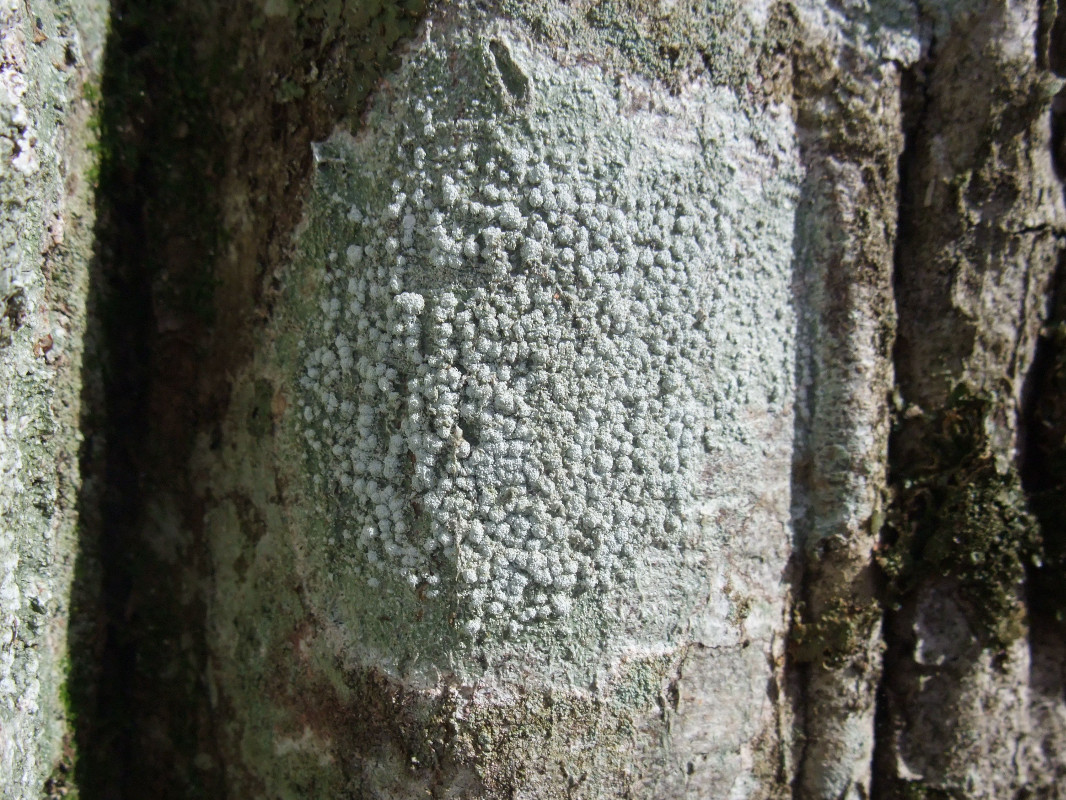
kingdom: Fungi
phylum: Ascomycota
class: Lecanoromycetes
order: Pertusariales
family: Pertusariaceae
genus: Lepra
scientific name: Lepra amara
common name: bitter prikvortelav
